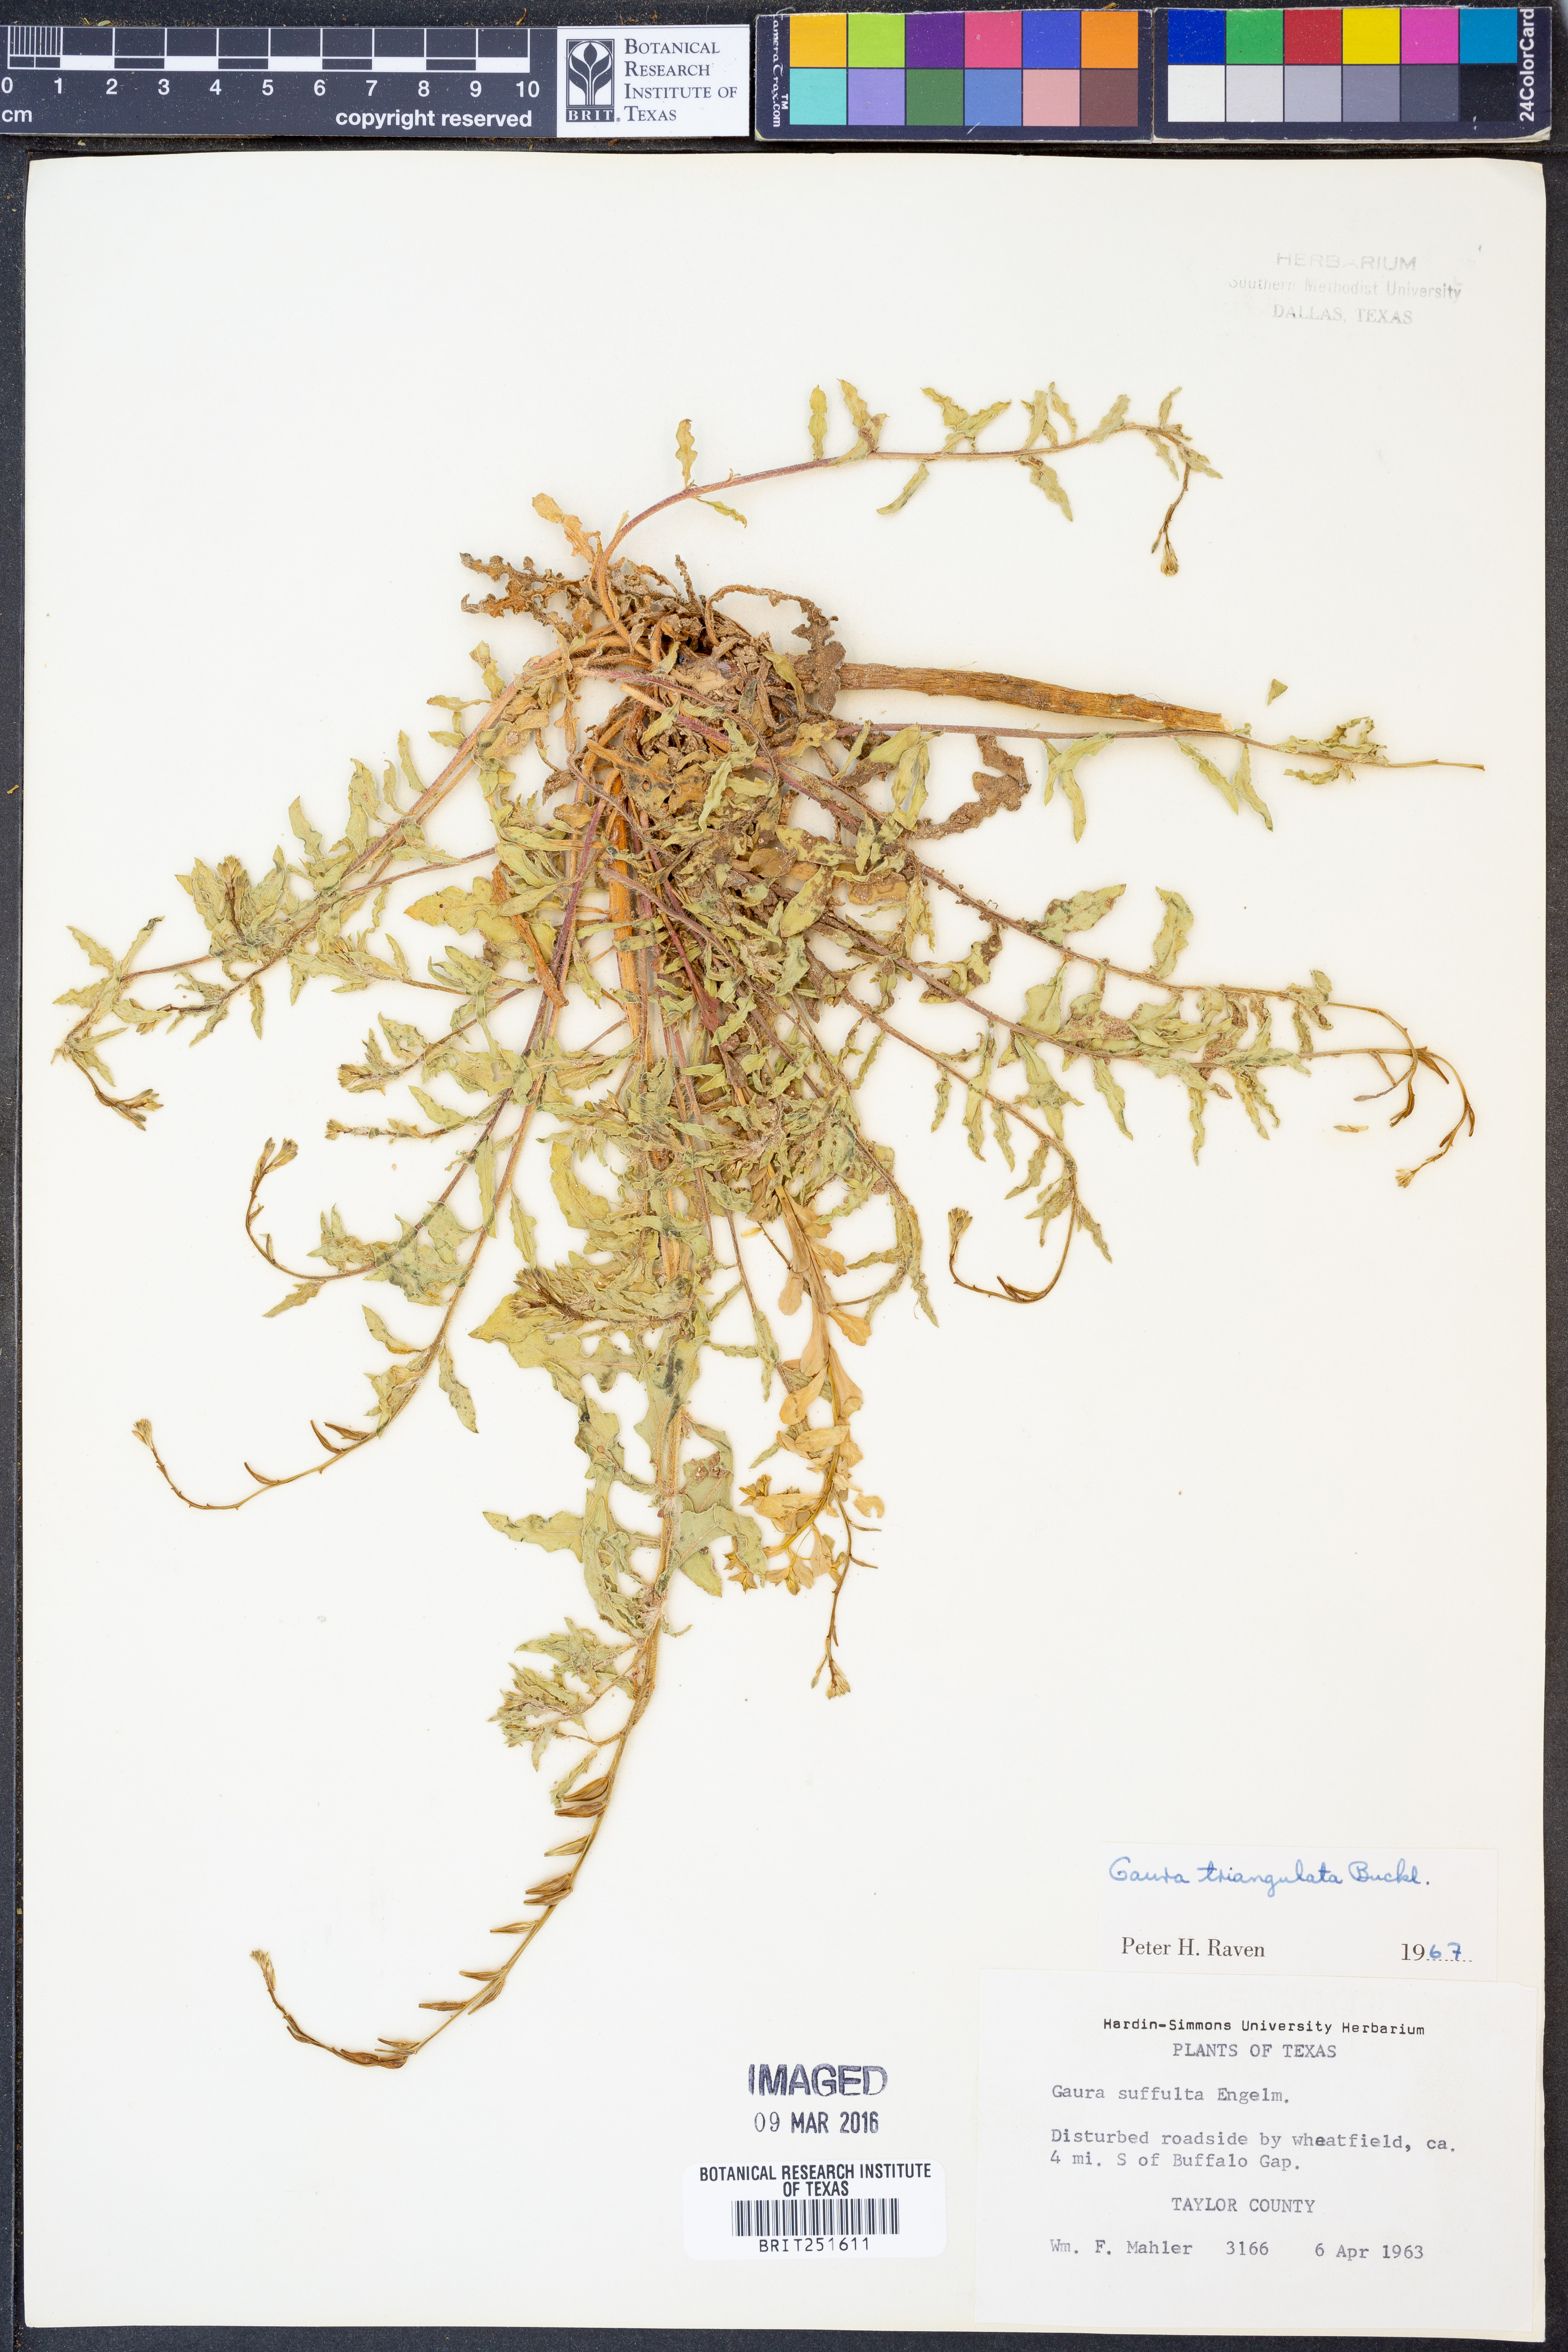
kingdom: Plantae
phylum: Tracheophyta
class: Magnoliopsida
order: Myrtales
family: Onagraceae
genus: Oenothera
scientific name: Oenothera triangulata
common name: Prairie beeblossom
